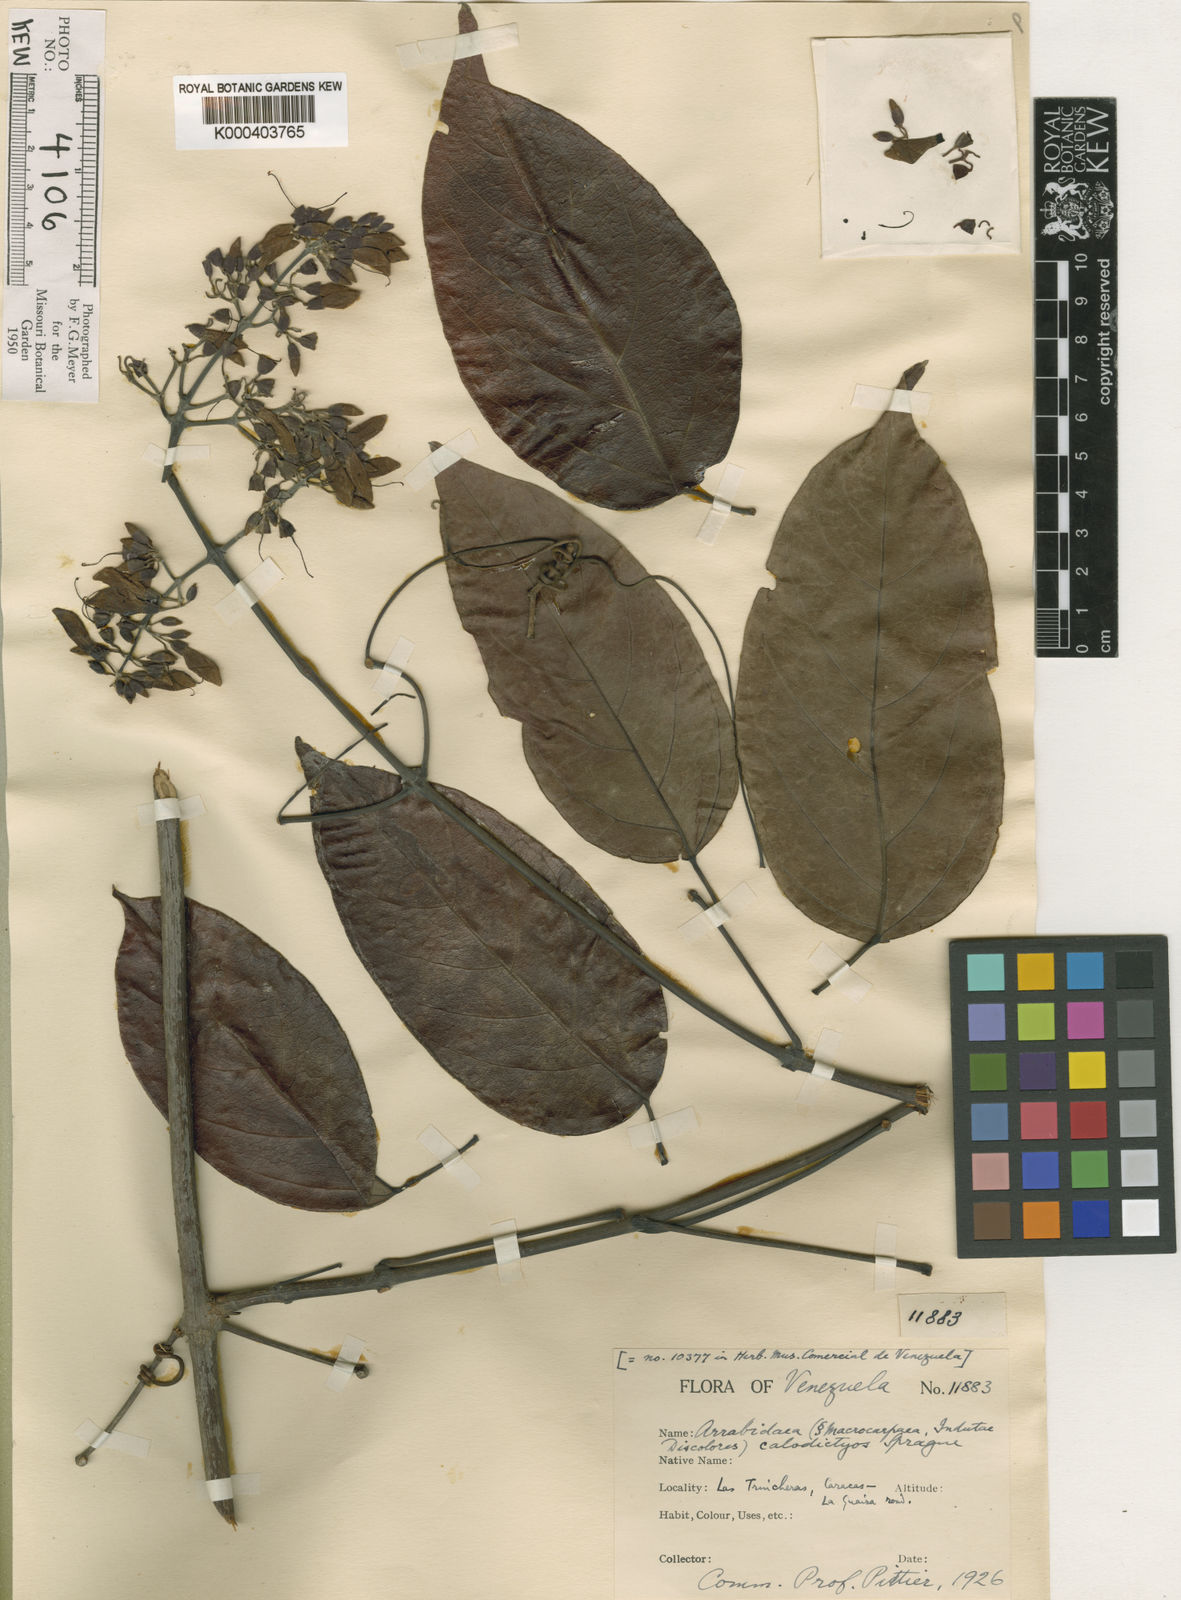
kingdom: Plantae
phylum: Tracheophyta
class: Magnoliopsida
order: Lamiales
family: Bignoniaceae
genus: Fridericia
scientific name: Fridericia candicans
